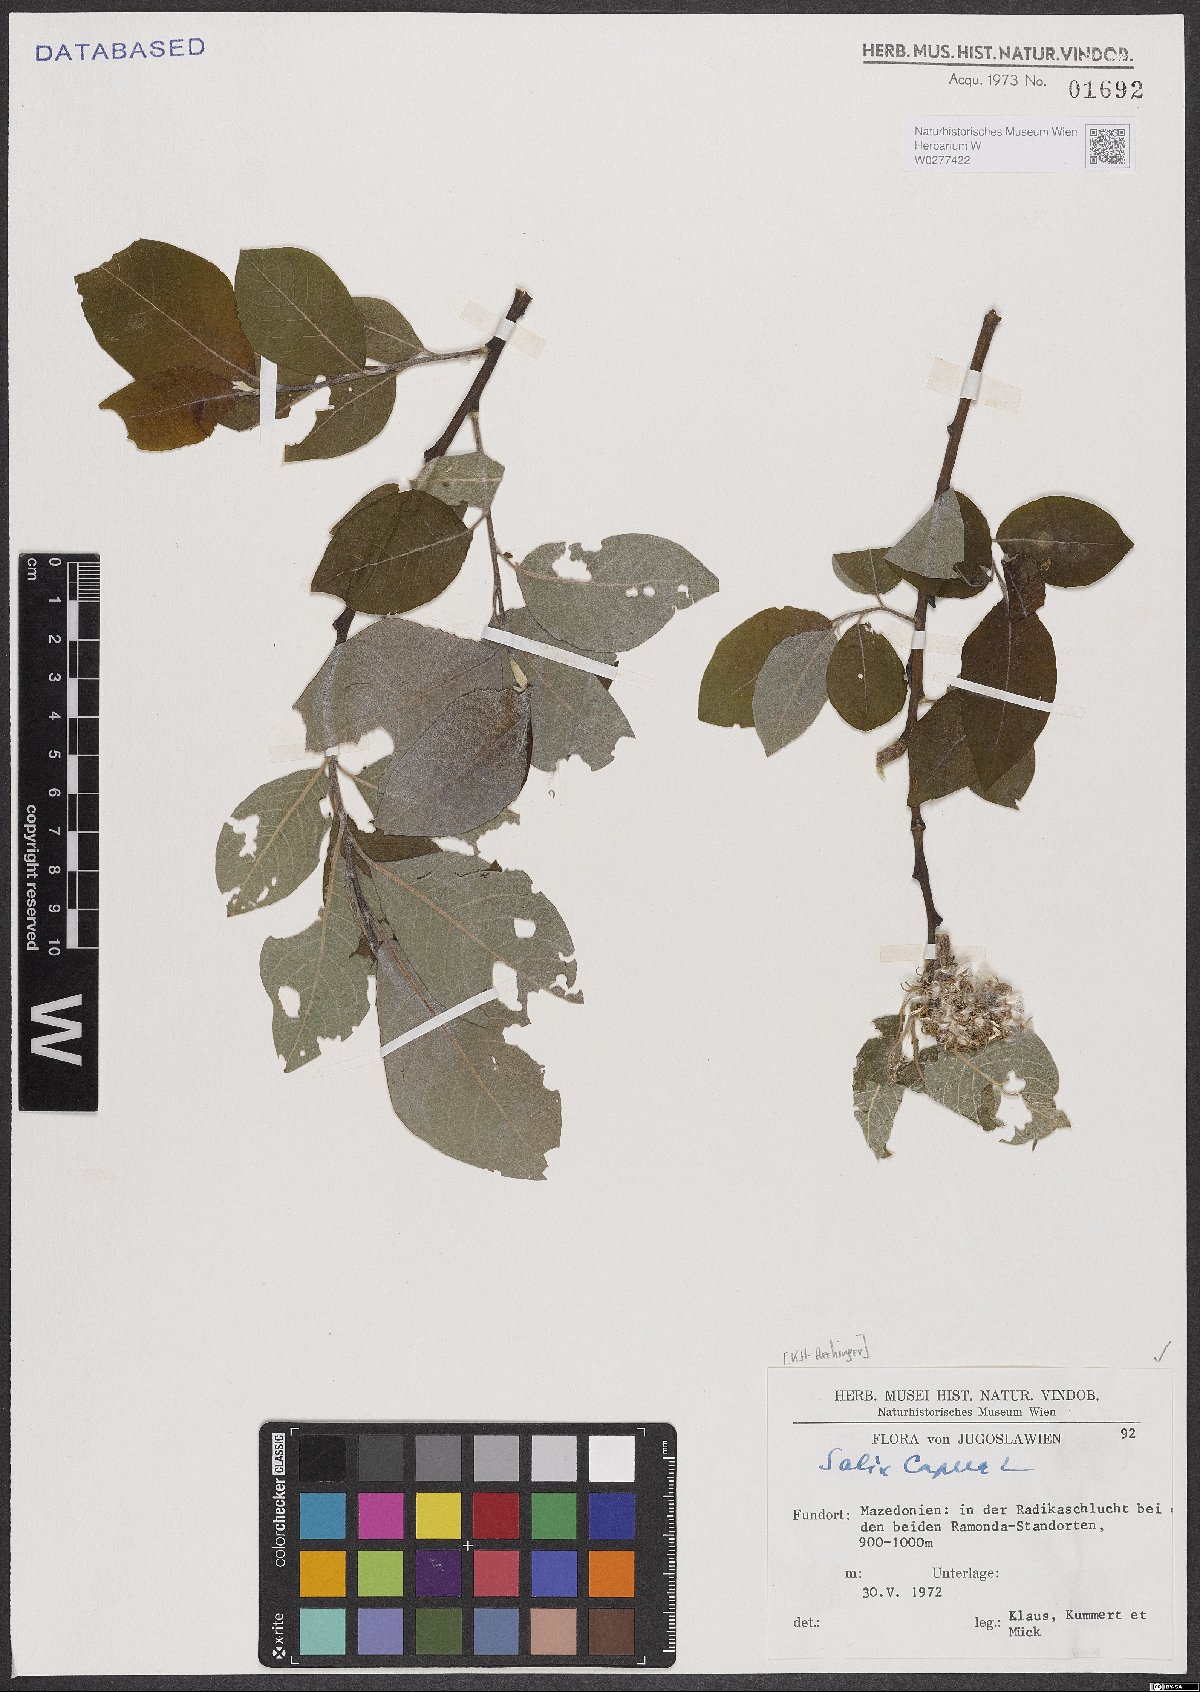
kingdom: Plantae
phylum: Tracheophyta
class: Magnoliopsida
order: Malpighiales
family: Salicaceae
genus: Salix
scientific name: Salix caprea
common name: Goat willow
